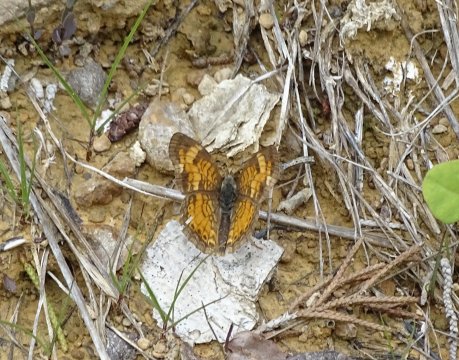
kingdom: Animalia
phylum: Arthropoda
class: Insecta
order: Lepidoptera
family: Nymphalidae
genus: Phyciodes
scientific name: Phyciodes tharos
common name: Pearl Crescent
